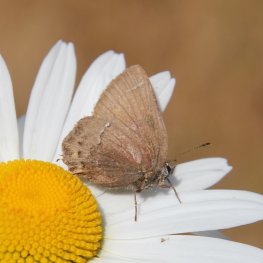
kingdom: Animalia
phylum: Arthropoda
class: Insecta
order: Lepidoptera
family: Lycaenidae
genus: Mitoura
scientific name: Mitoura nelsoni
